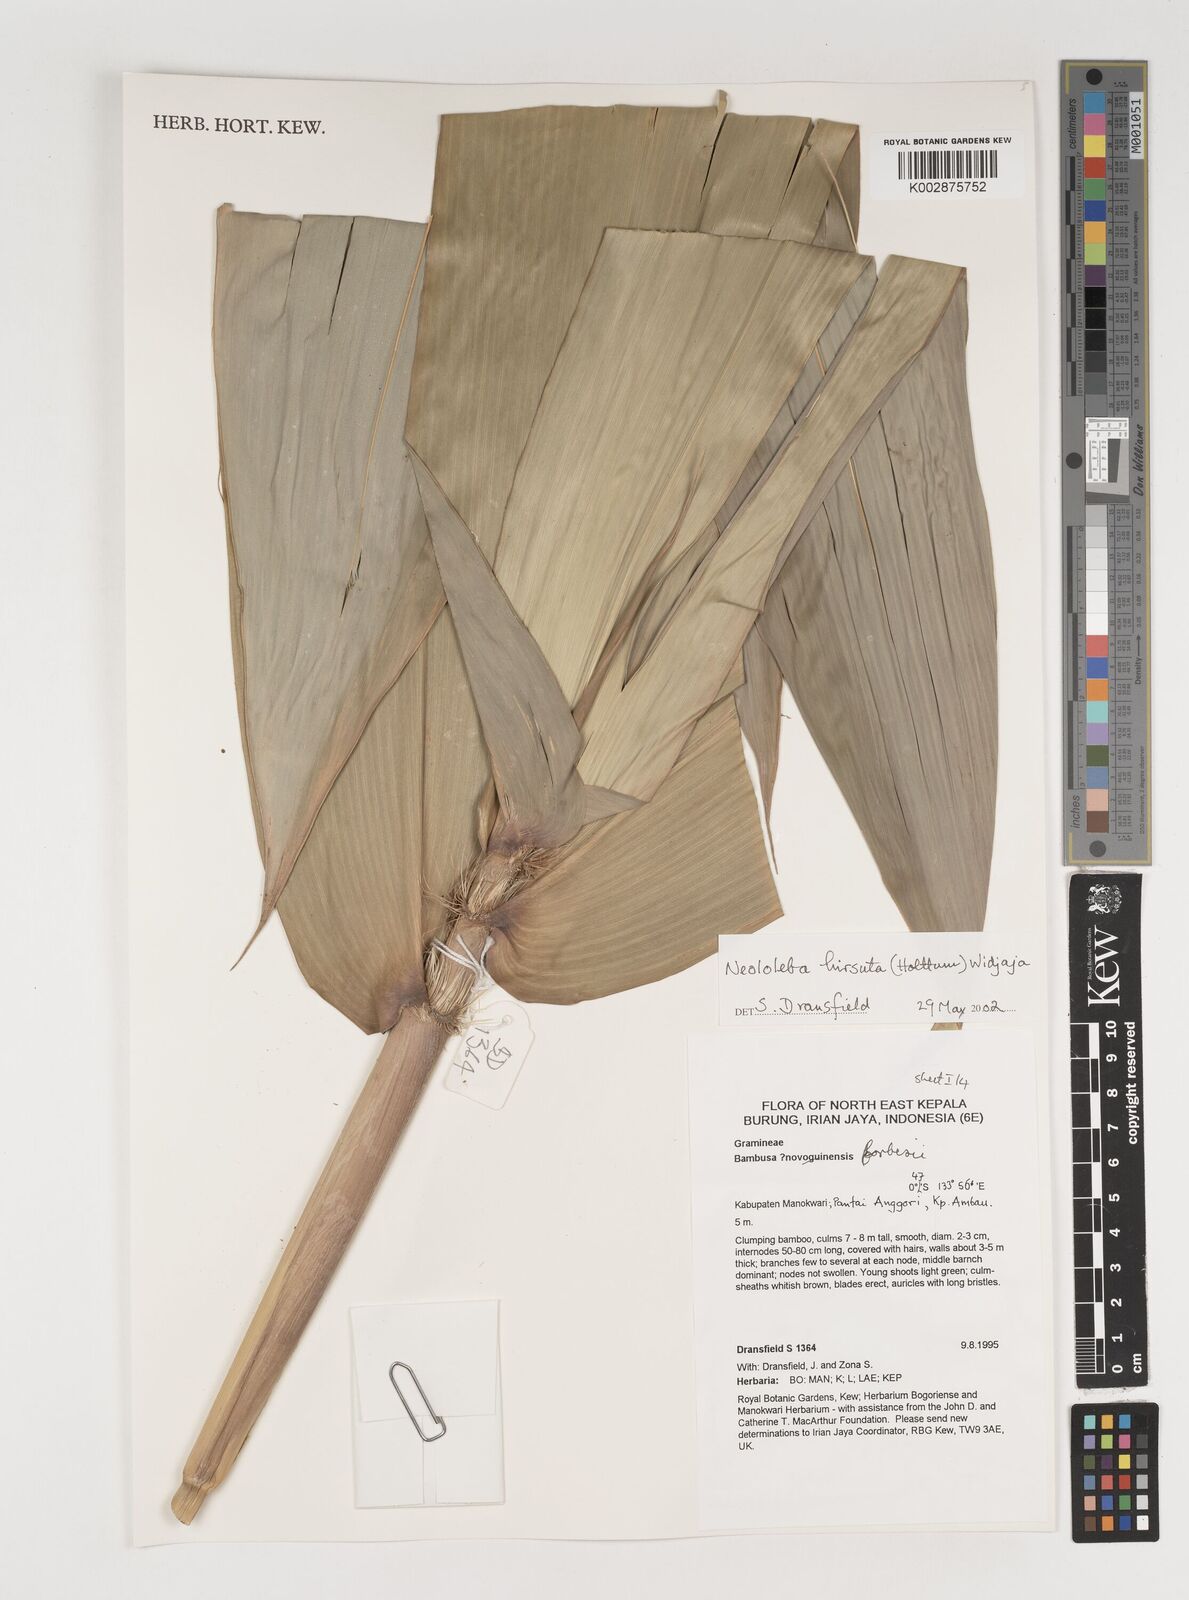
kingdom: Plantae
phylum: Tracheophyta
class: Liliopsida
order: Poales
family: Poaceae
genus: Neololeba
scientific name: Neololeba hirsuta
